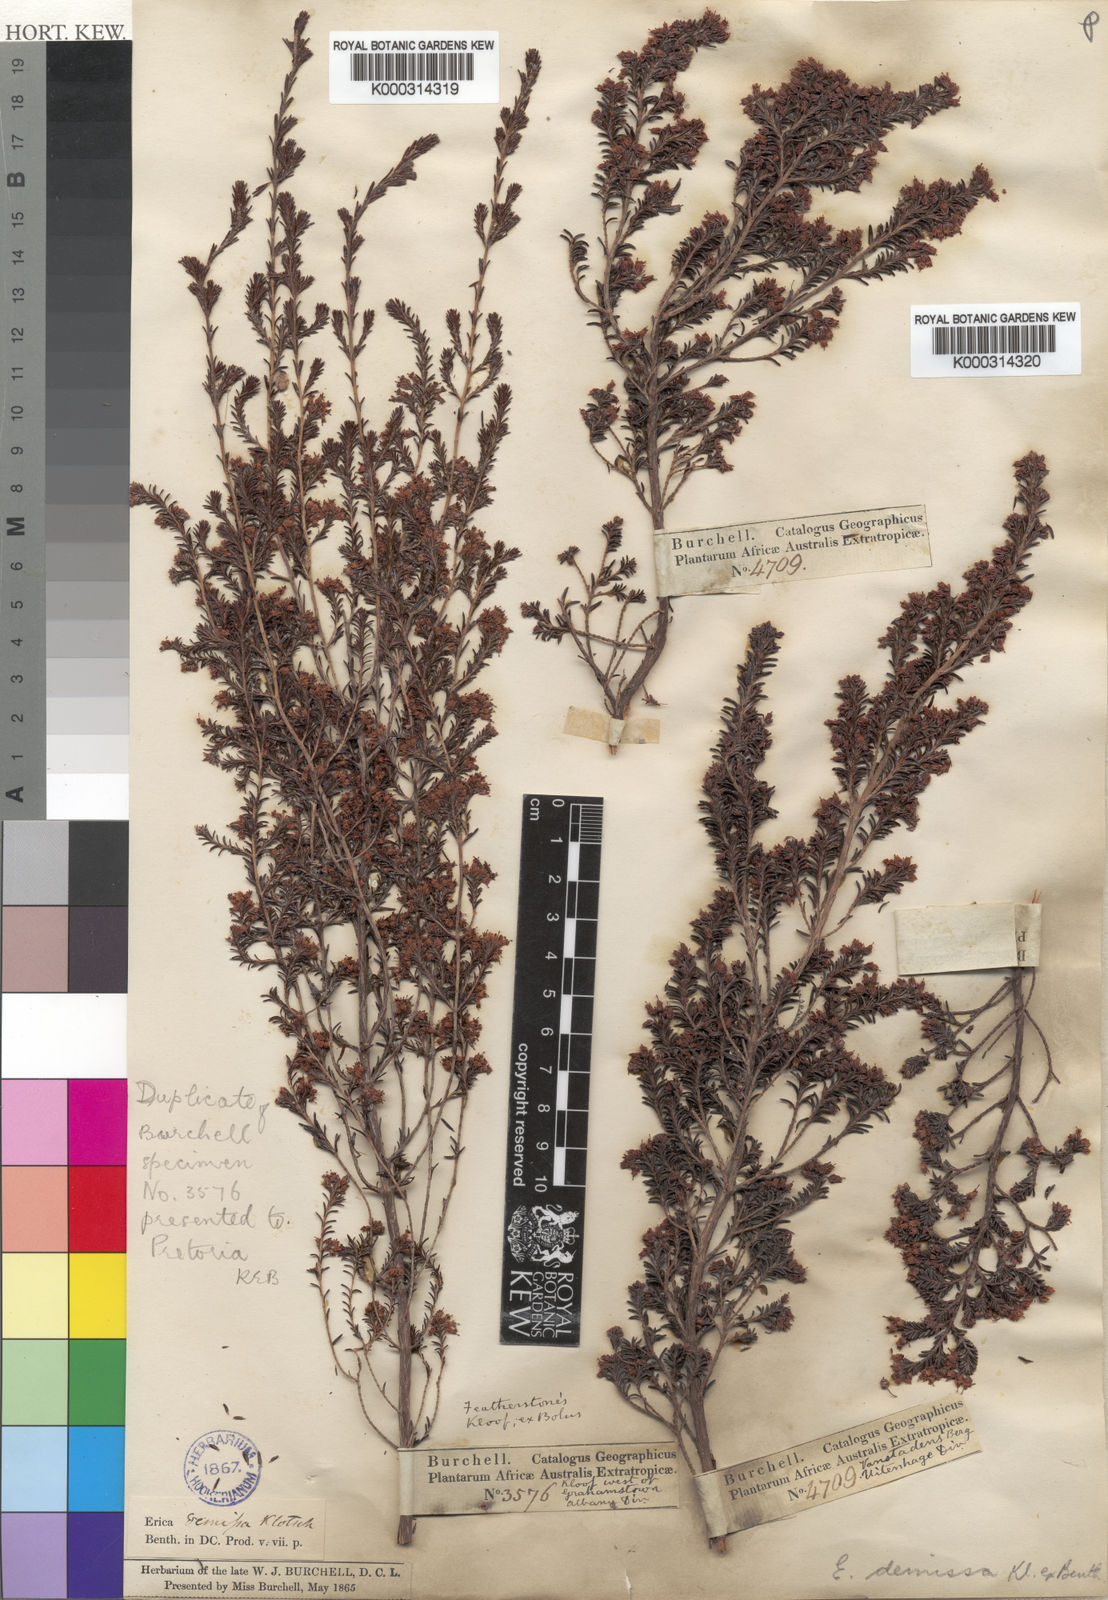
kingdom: Plantae
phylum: Tracheophyta
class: Magnoliopsida
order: Ericales
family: Ericaceae
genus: Erica
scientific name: Erica demissa
